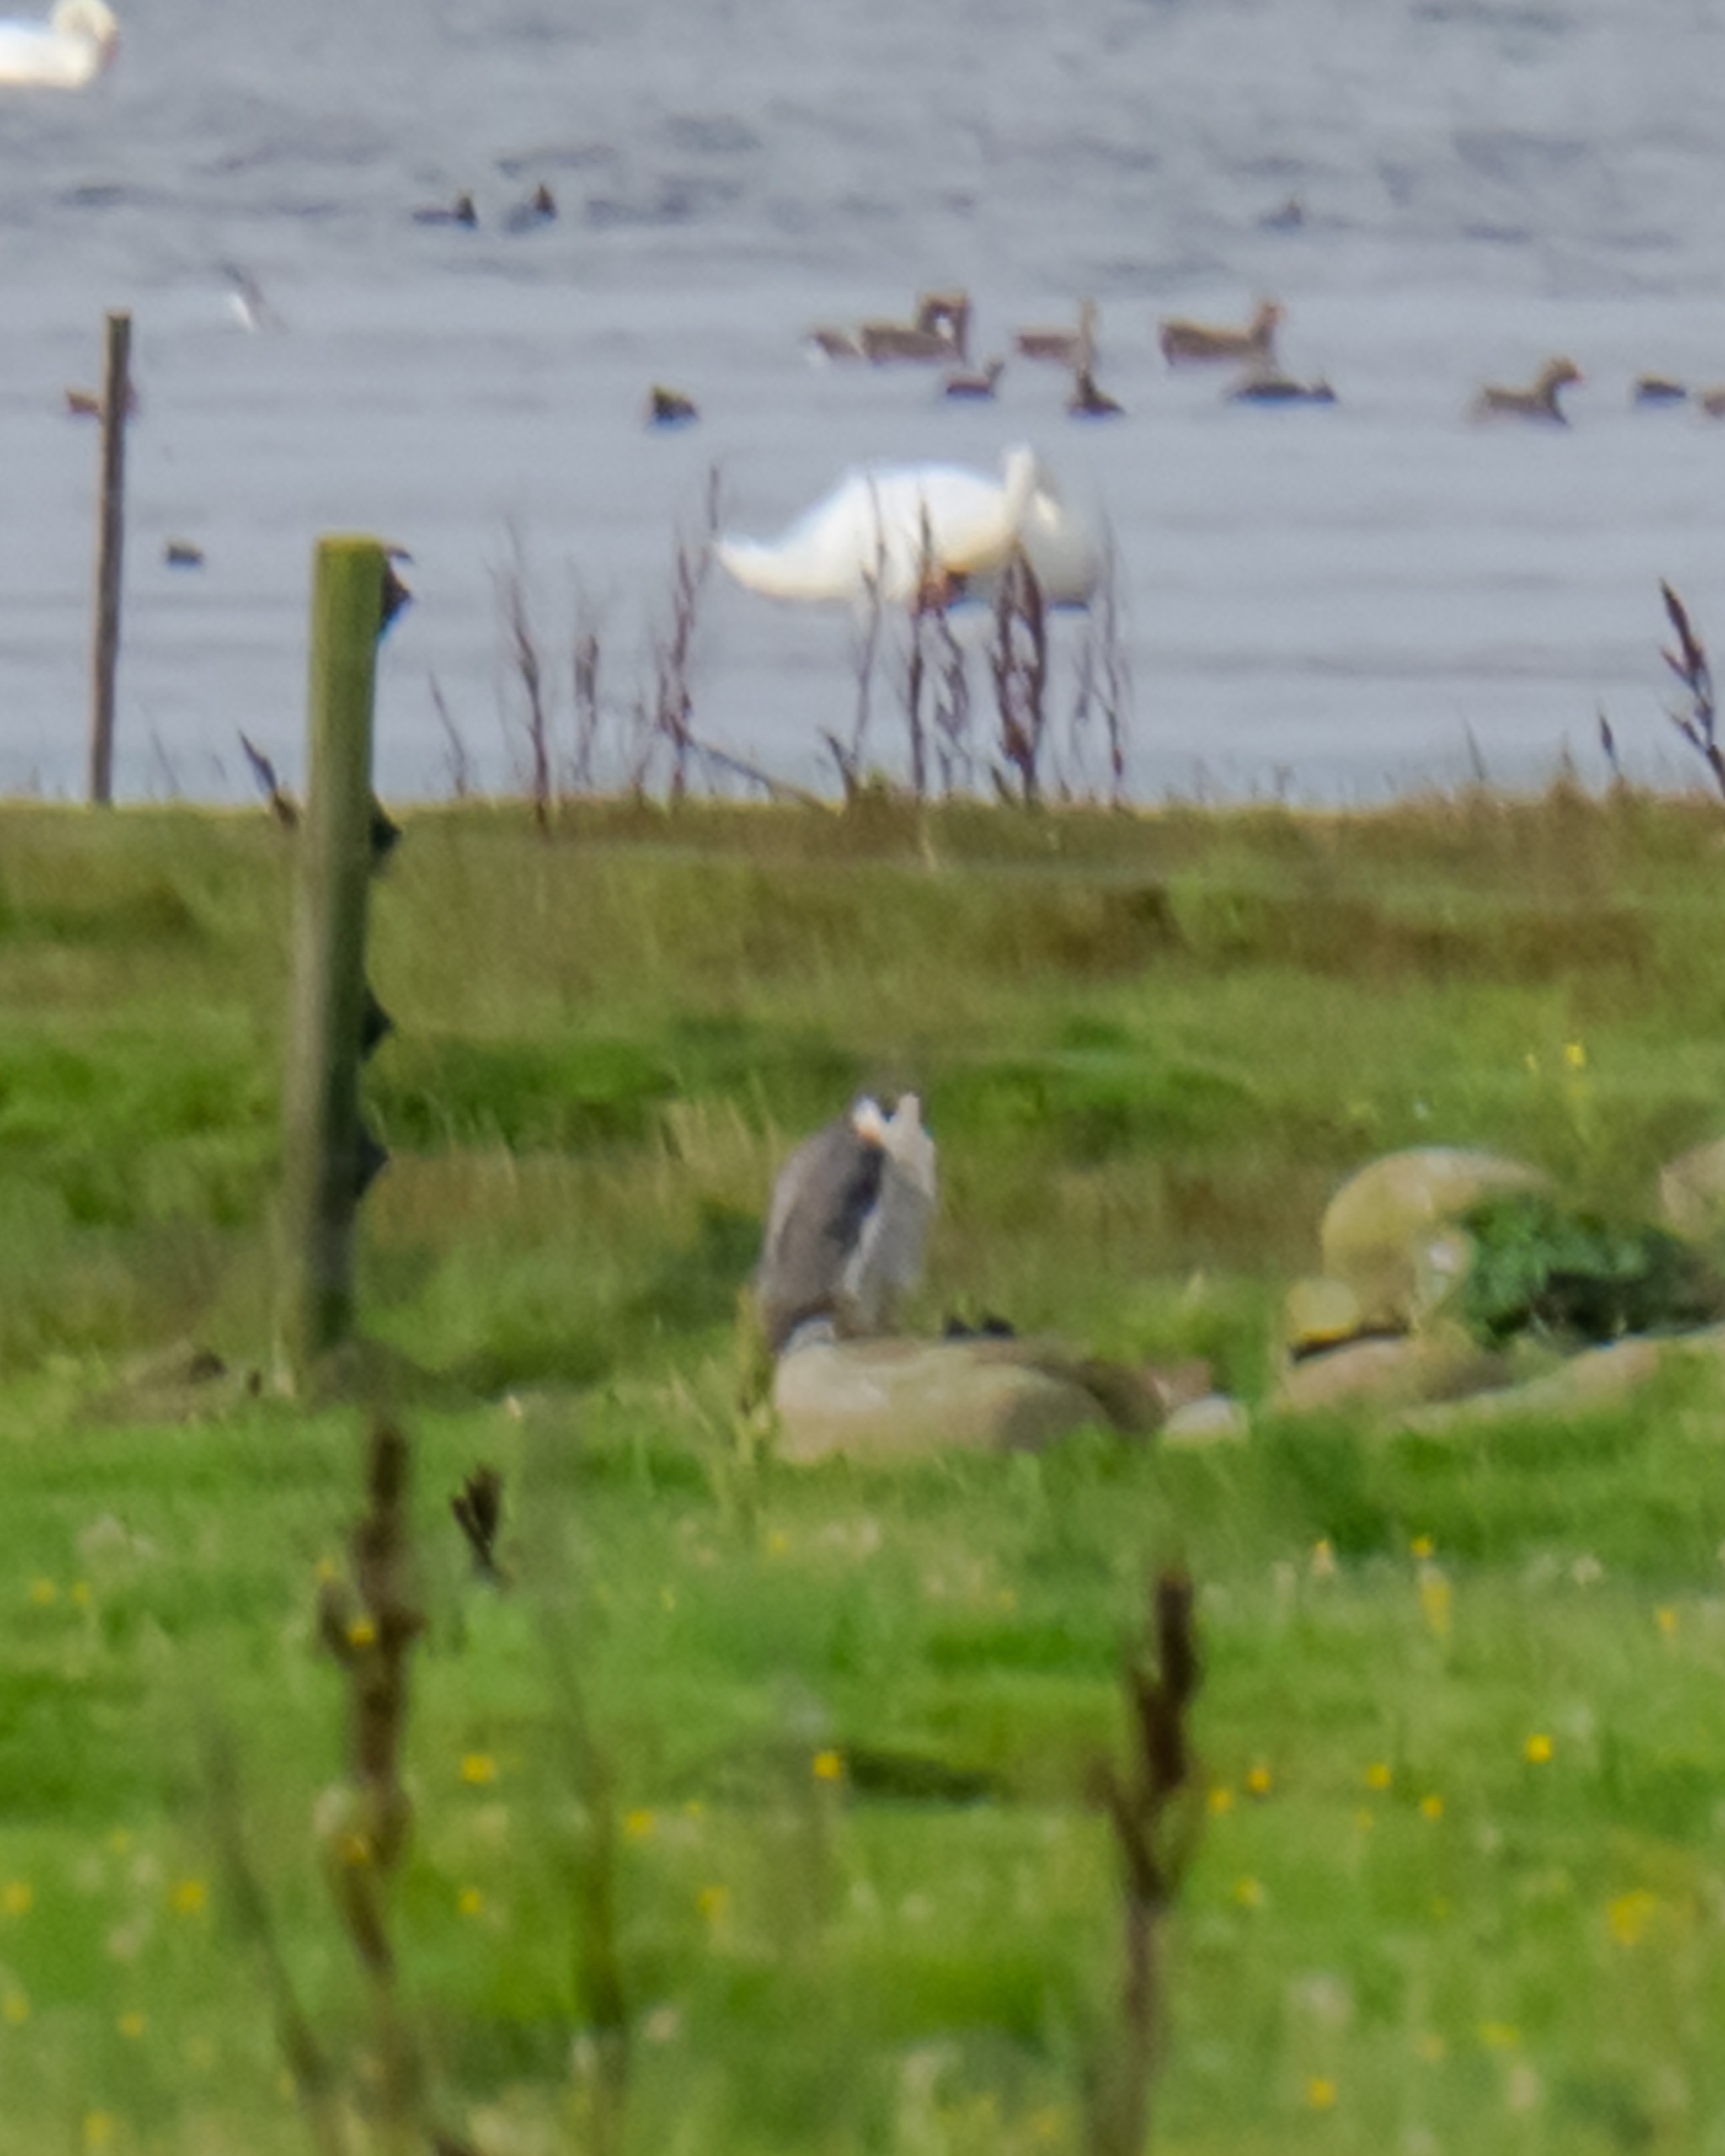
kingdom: Animalia
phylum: Chordata
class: Aves
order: Falconiformes
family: Falconidae
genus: Falco
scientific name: Falco peregrinus
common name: Vandrefalk
